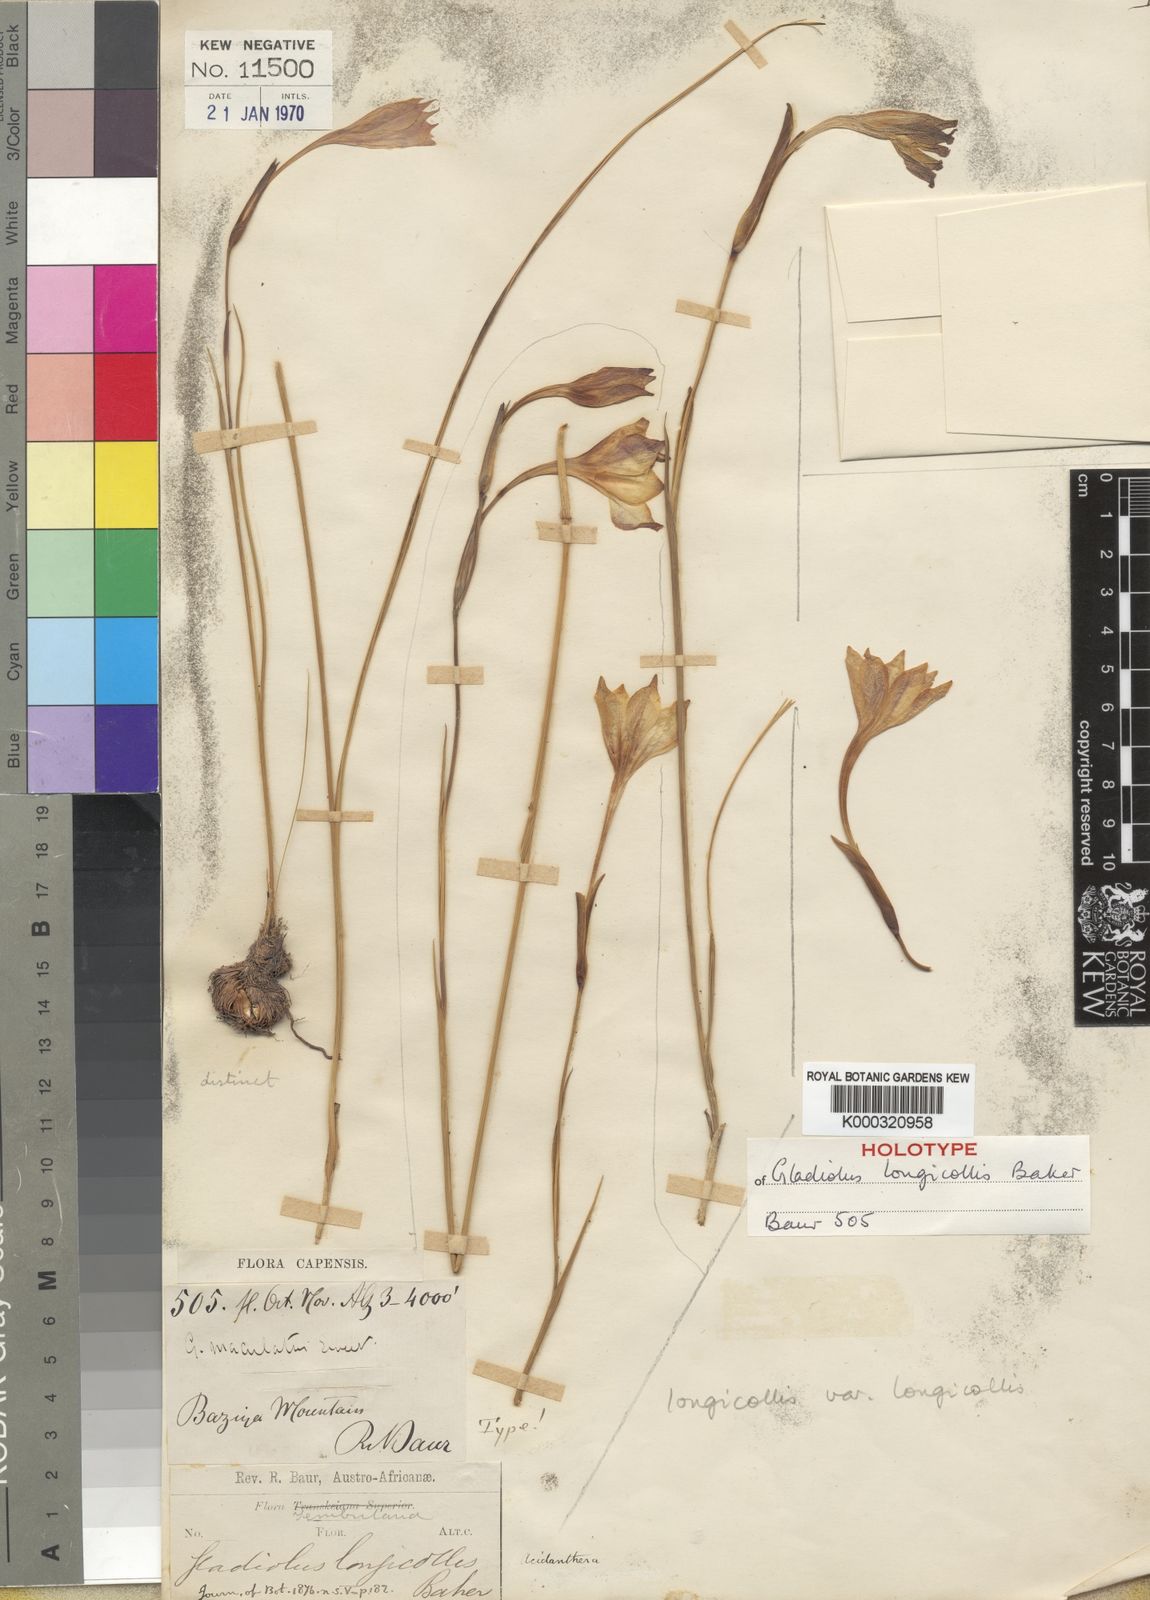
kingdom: Plantae
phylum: Tracheophyta
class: Liliopsida
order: Asparagales
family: Iridaceae
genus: Gladiolus
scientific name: Gladiolus longicollis
